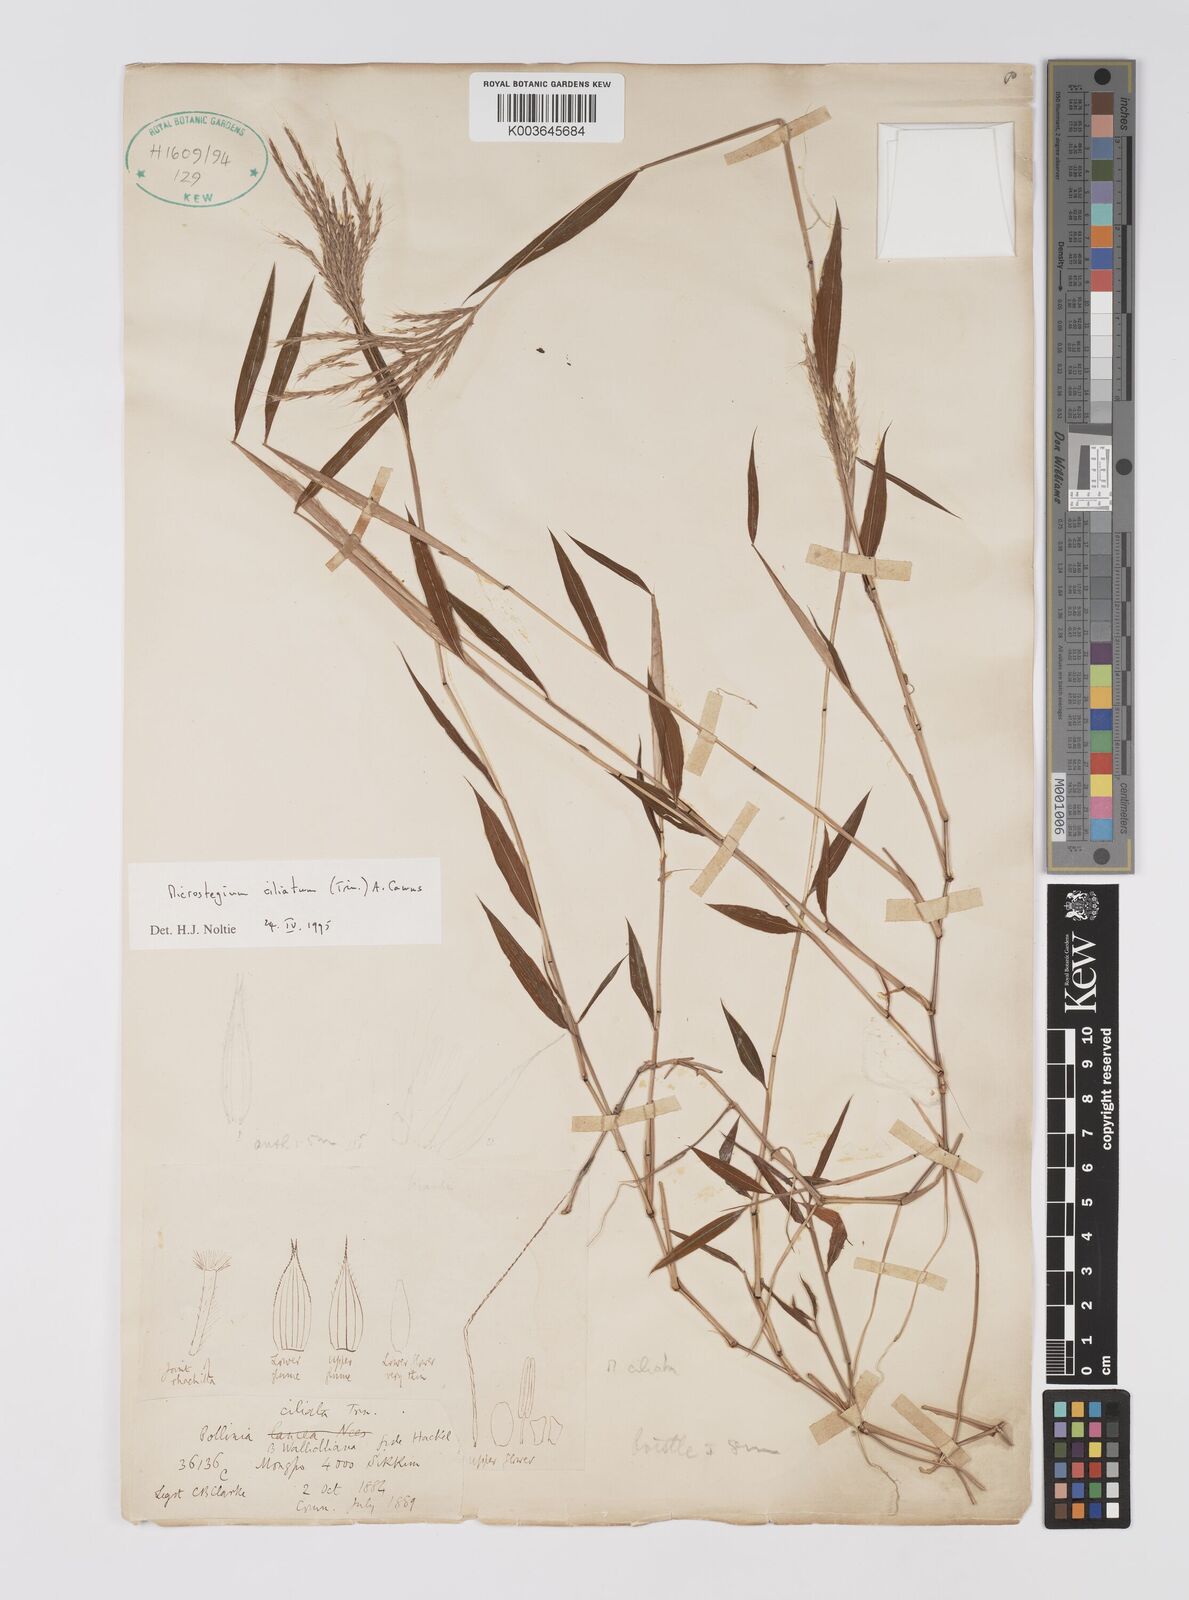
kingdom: Plantae
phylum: Tracheophyta
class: Liliopsida
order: Poales
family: Poaceae
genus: Microstegium
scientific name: Microstegium fasciculatum
